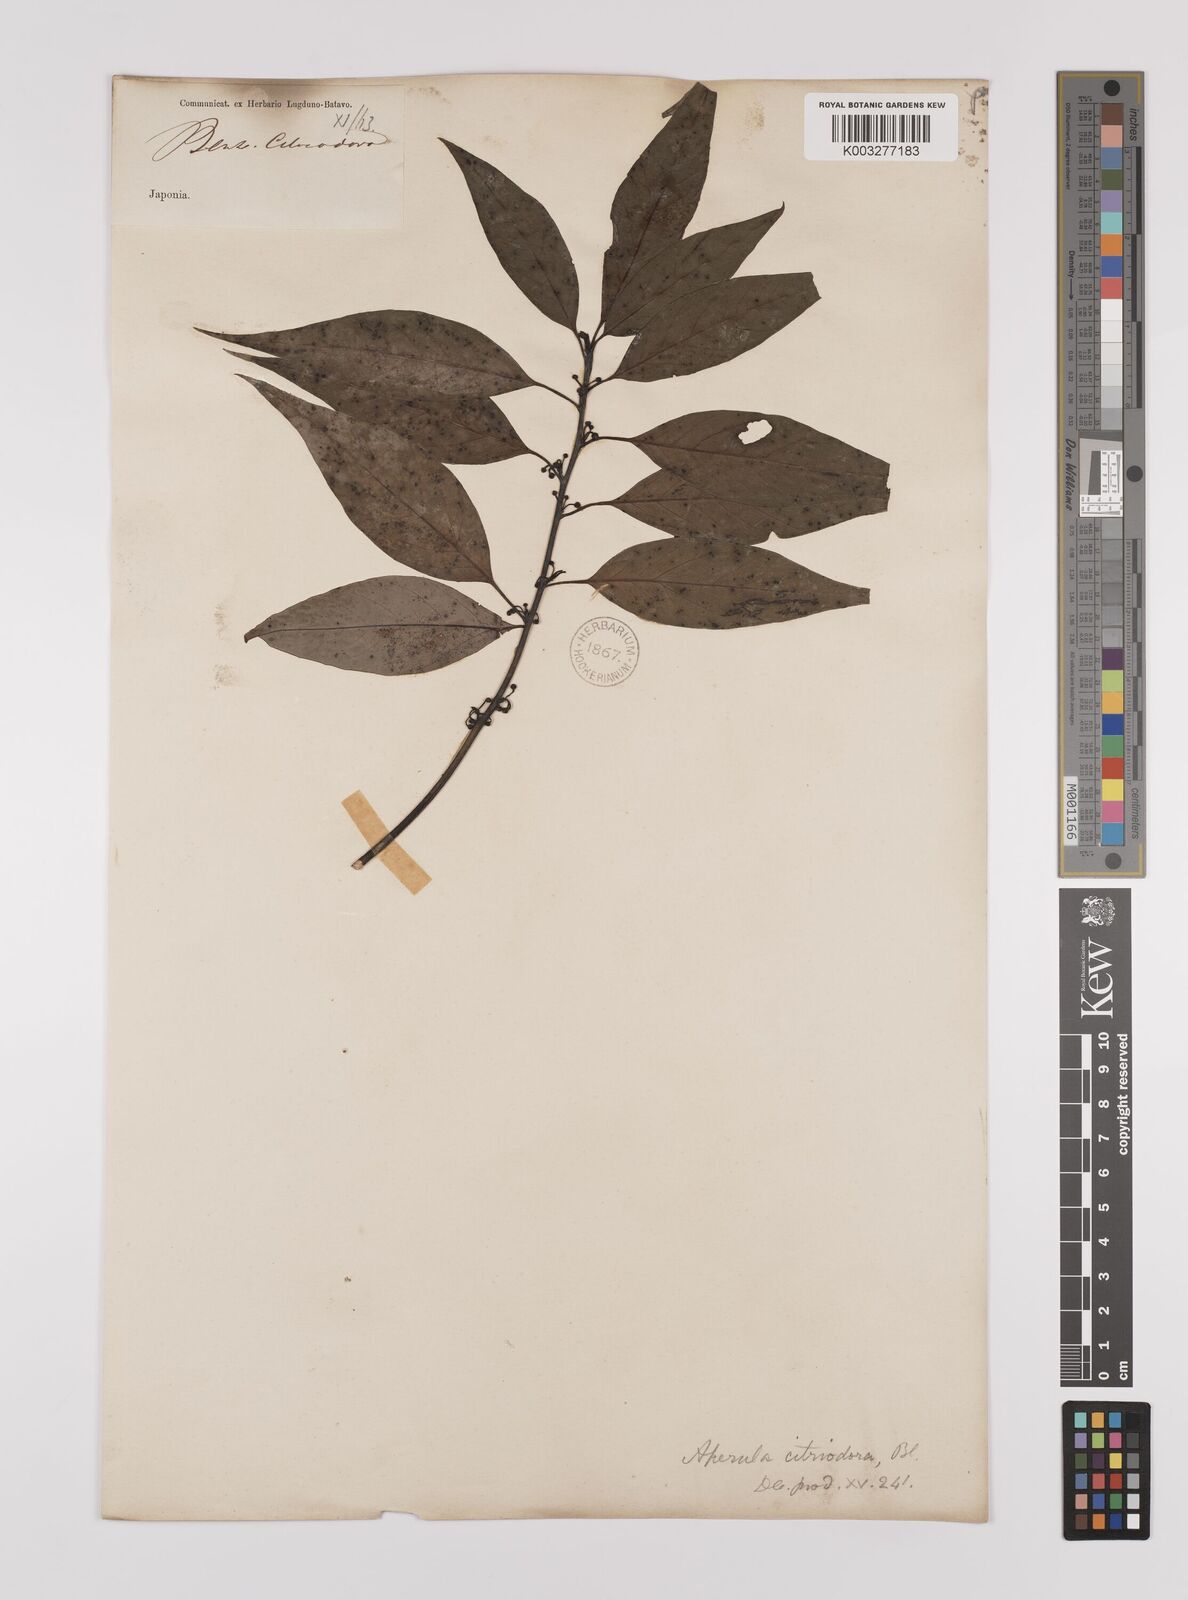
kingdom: Plantae
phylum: Tracheophyta
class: Magnoliopsida
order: Laurales
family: Lauraceae
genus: Lindera
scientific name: Lindera citriodora
